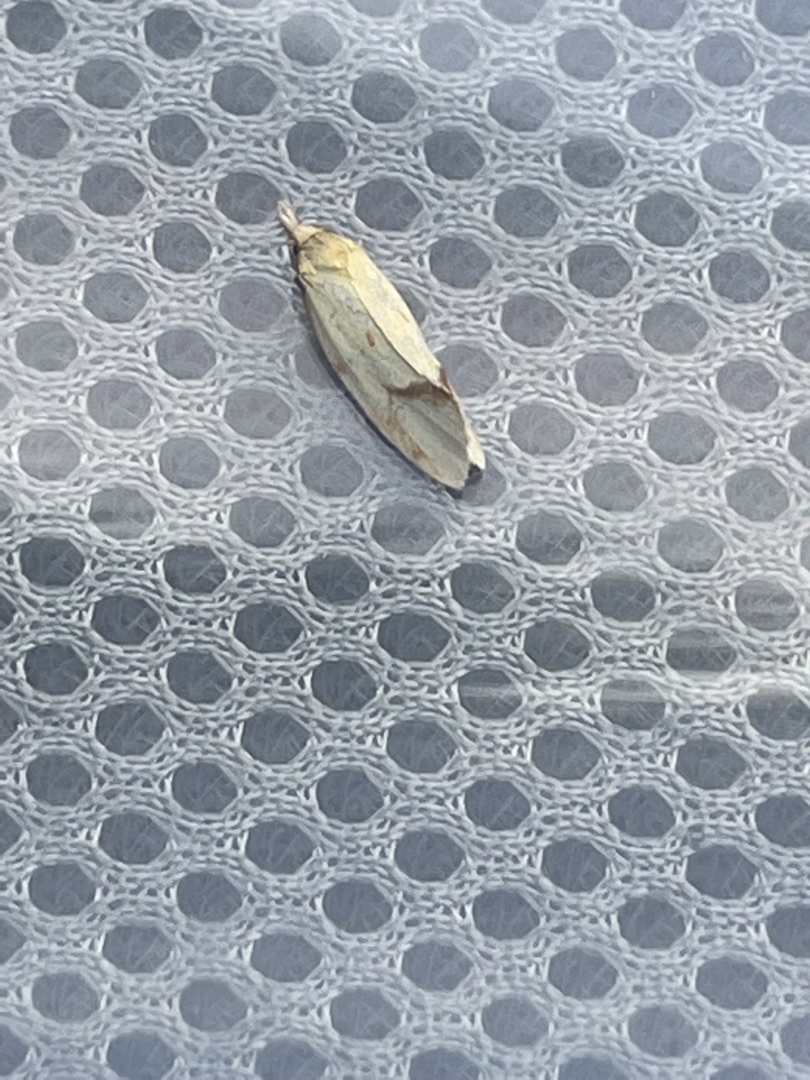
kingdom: Animalia
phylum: Arthropoda
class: Insecta
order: Lepidoptera
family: Tortricidae
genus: Agapeta
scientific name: Agapeta hamana
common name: Tidselgulvikler
